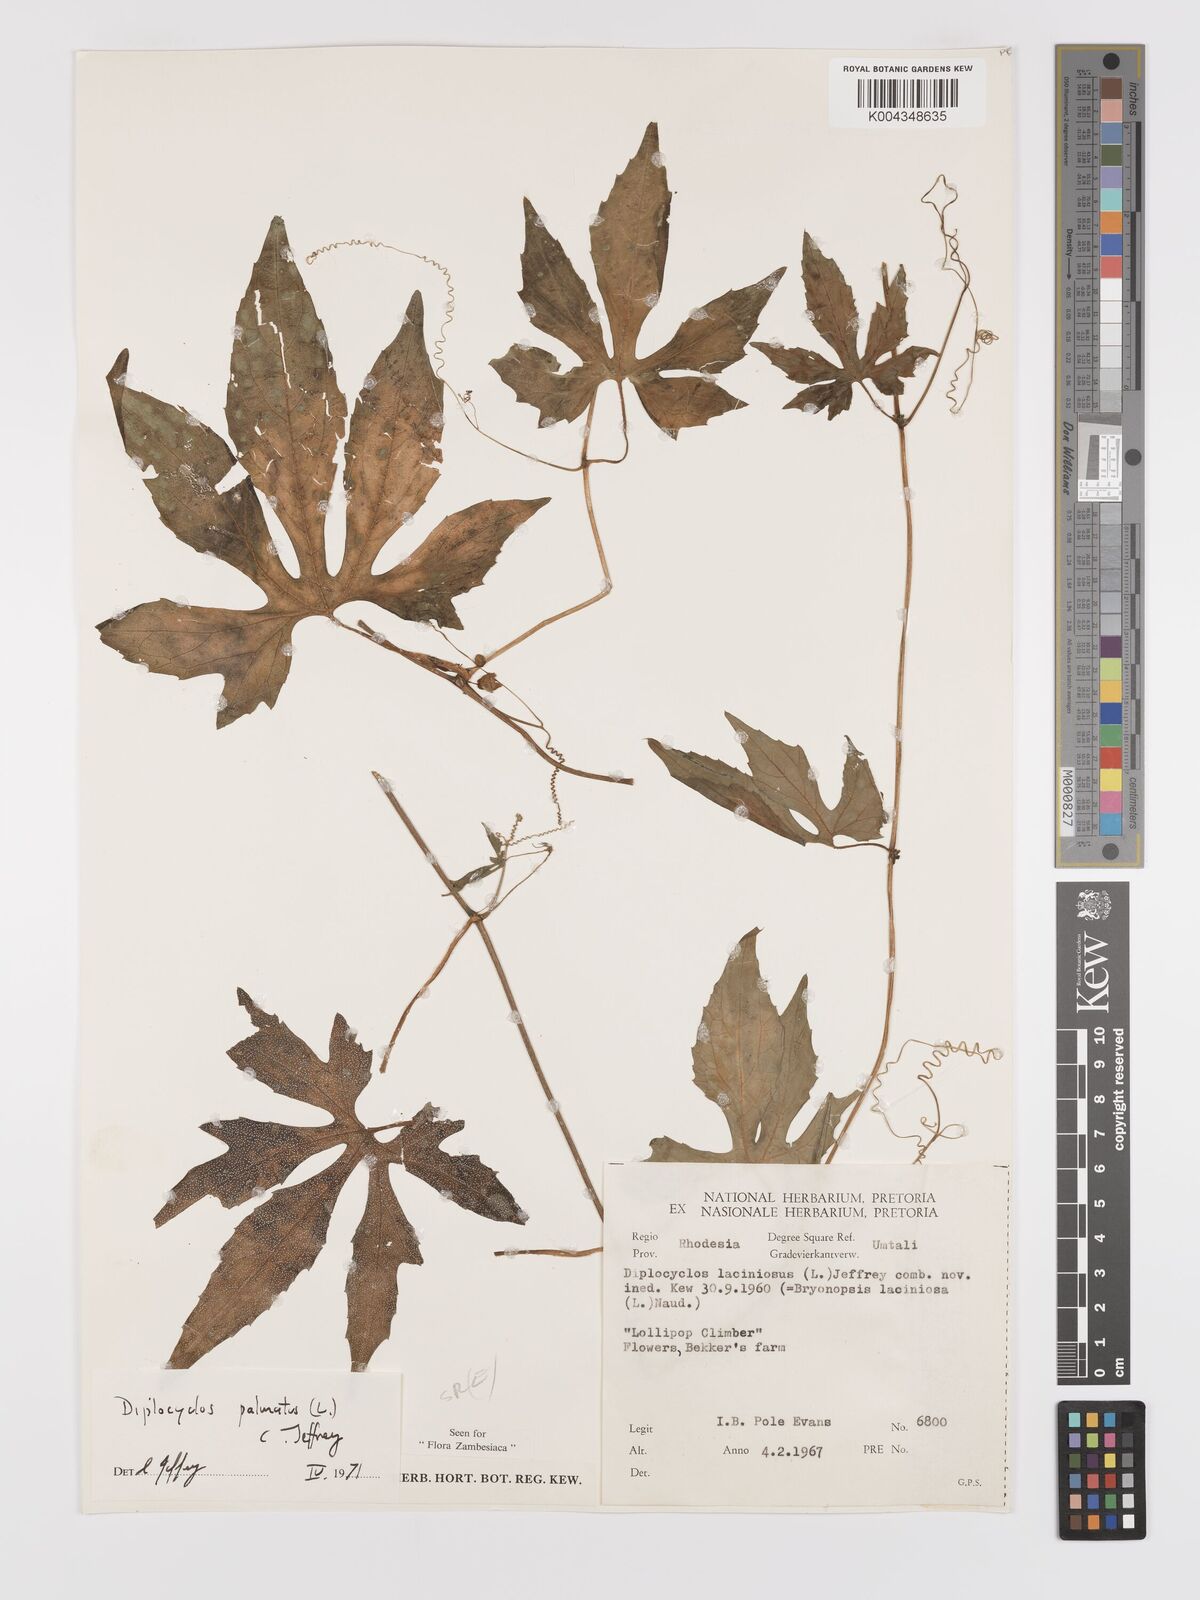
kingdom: Plantae
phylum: Tracheophyta
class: Magnoliopsida
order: Cucurbitales
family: Cucurbitaceae
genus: Diplocyclos
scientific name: Diplocyclos palmatus
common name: Striped-cucumber
